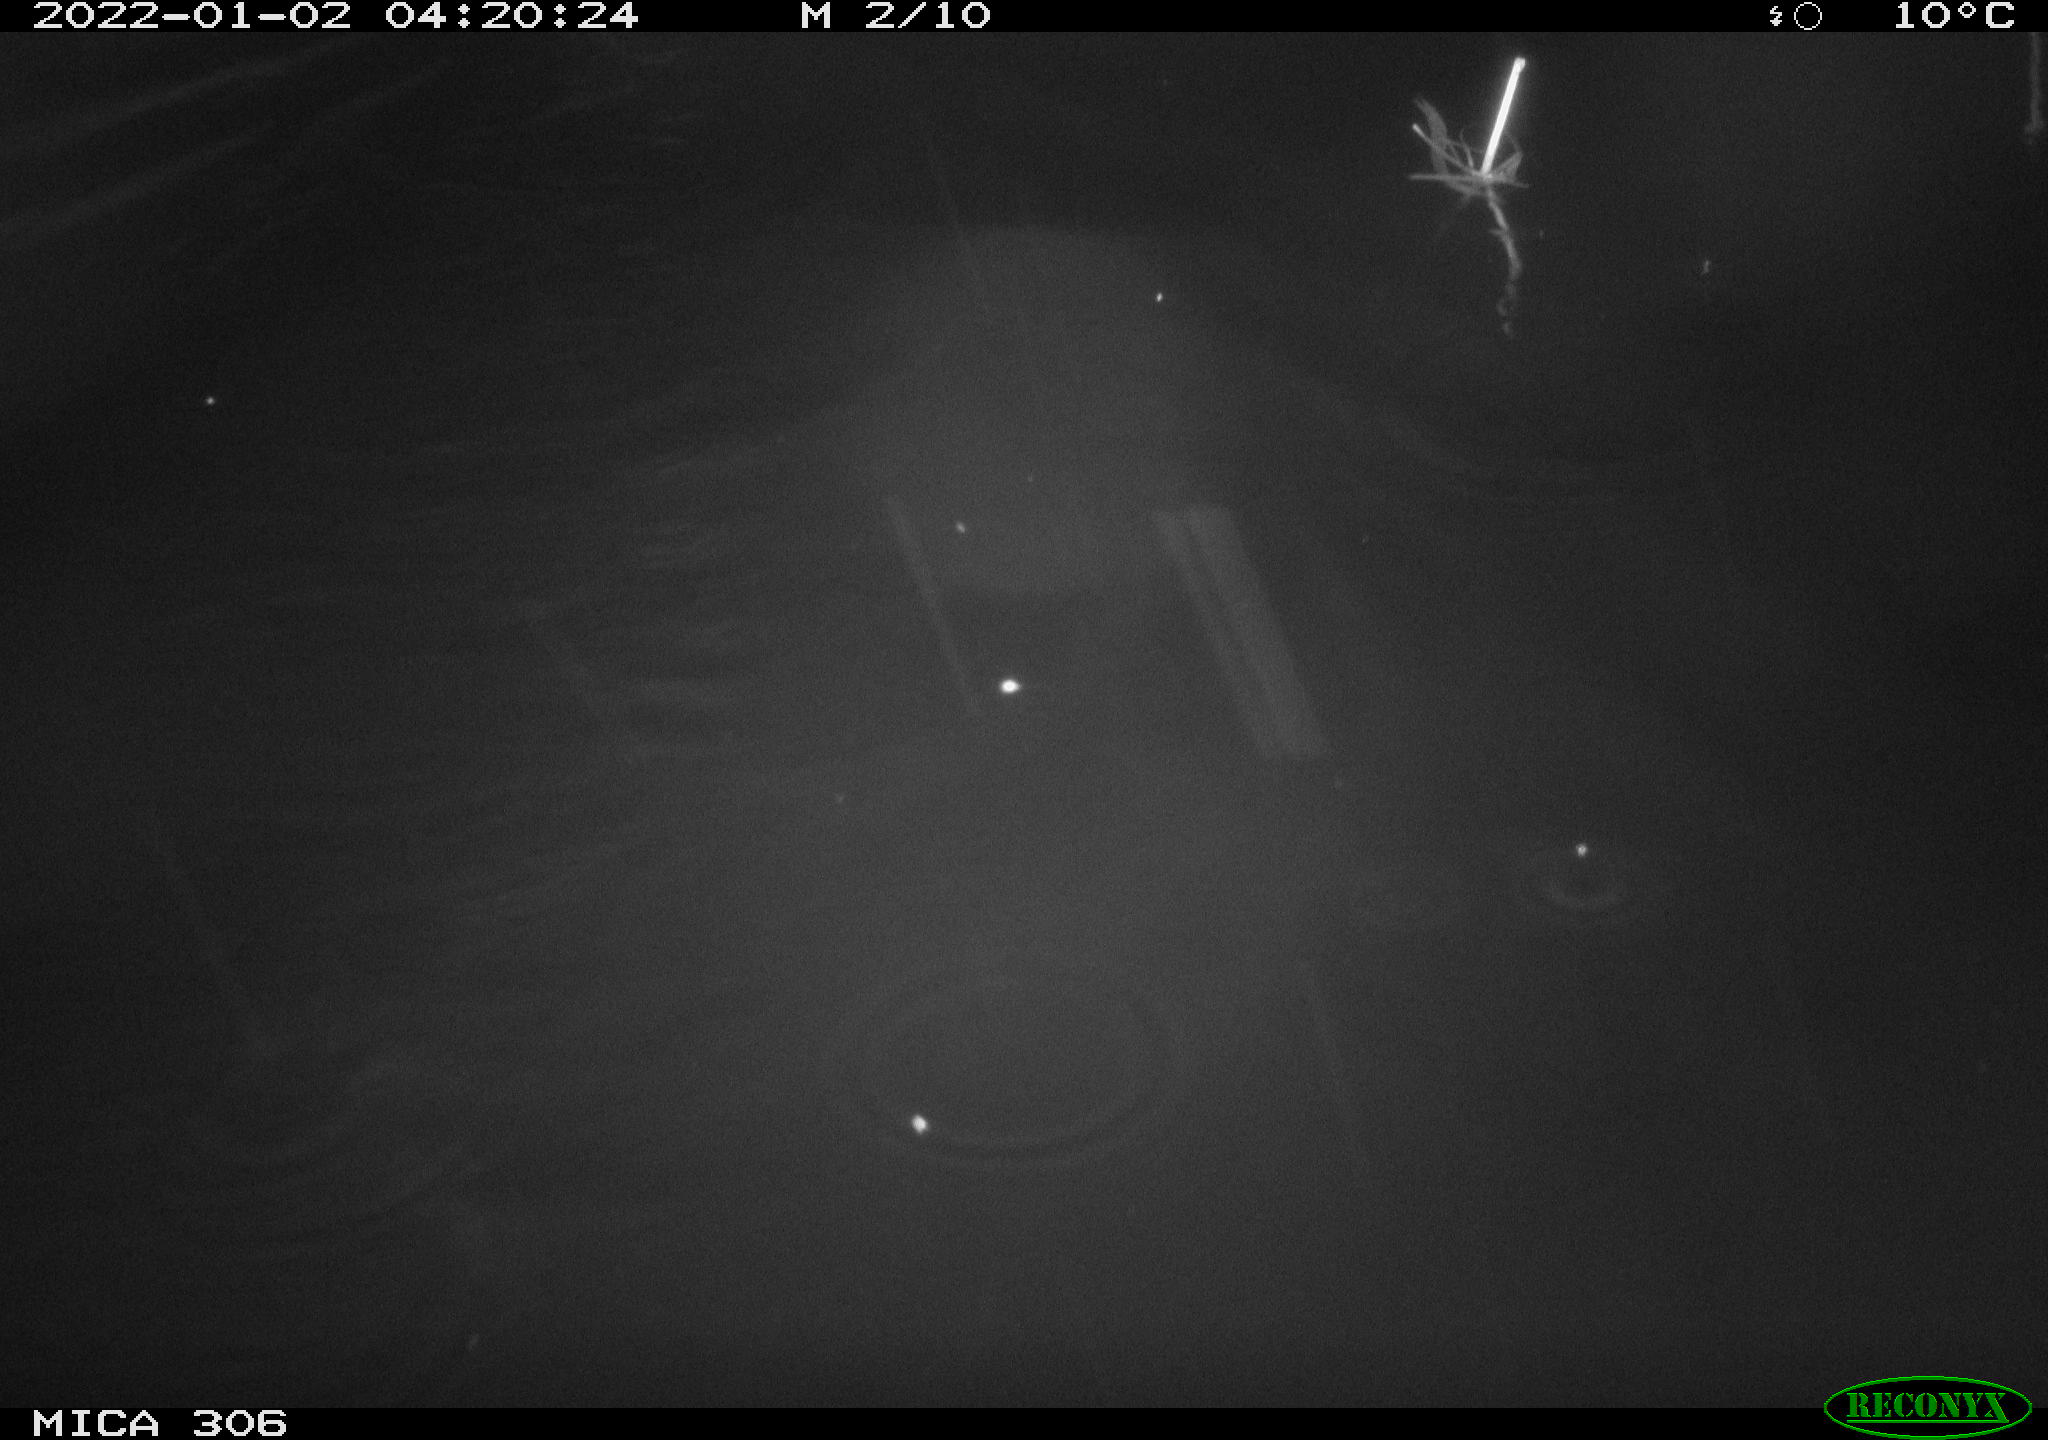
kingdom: Animalia
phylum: Chordata
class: Mammalia
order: Rodentia
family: Cricetidae
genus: Ondatra
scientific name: Ondatra zibethicus
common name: Muskrat
